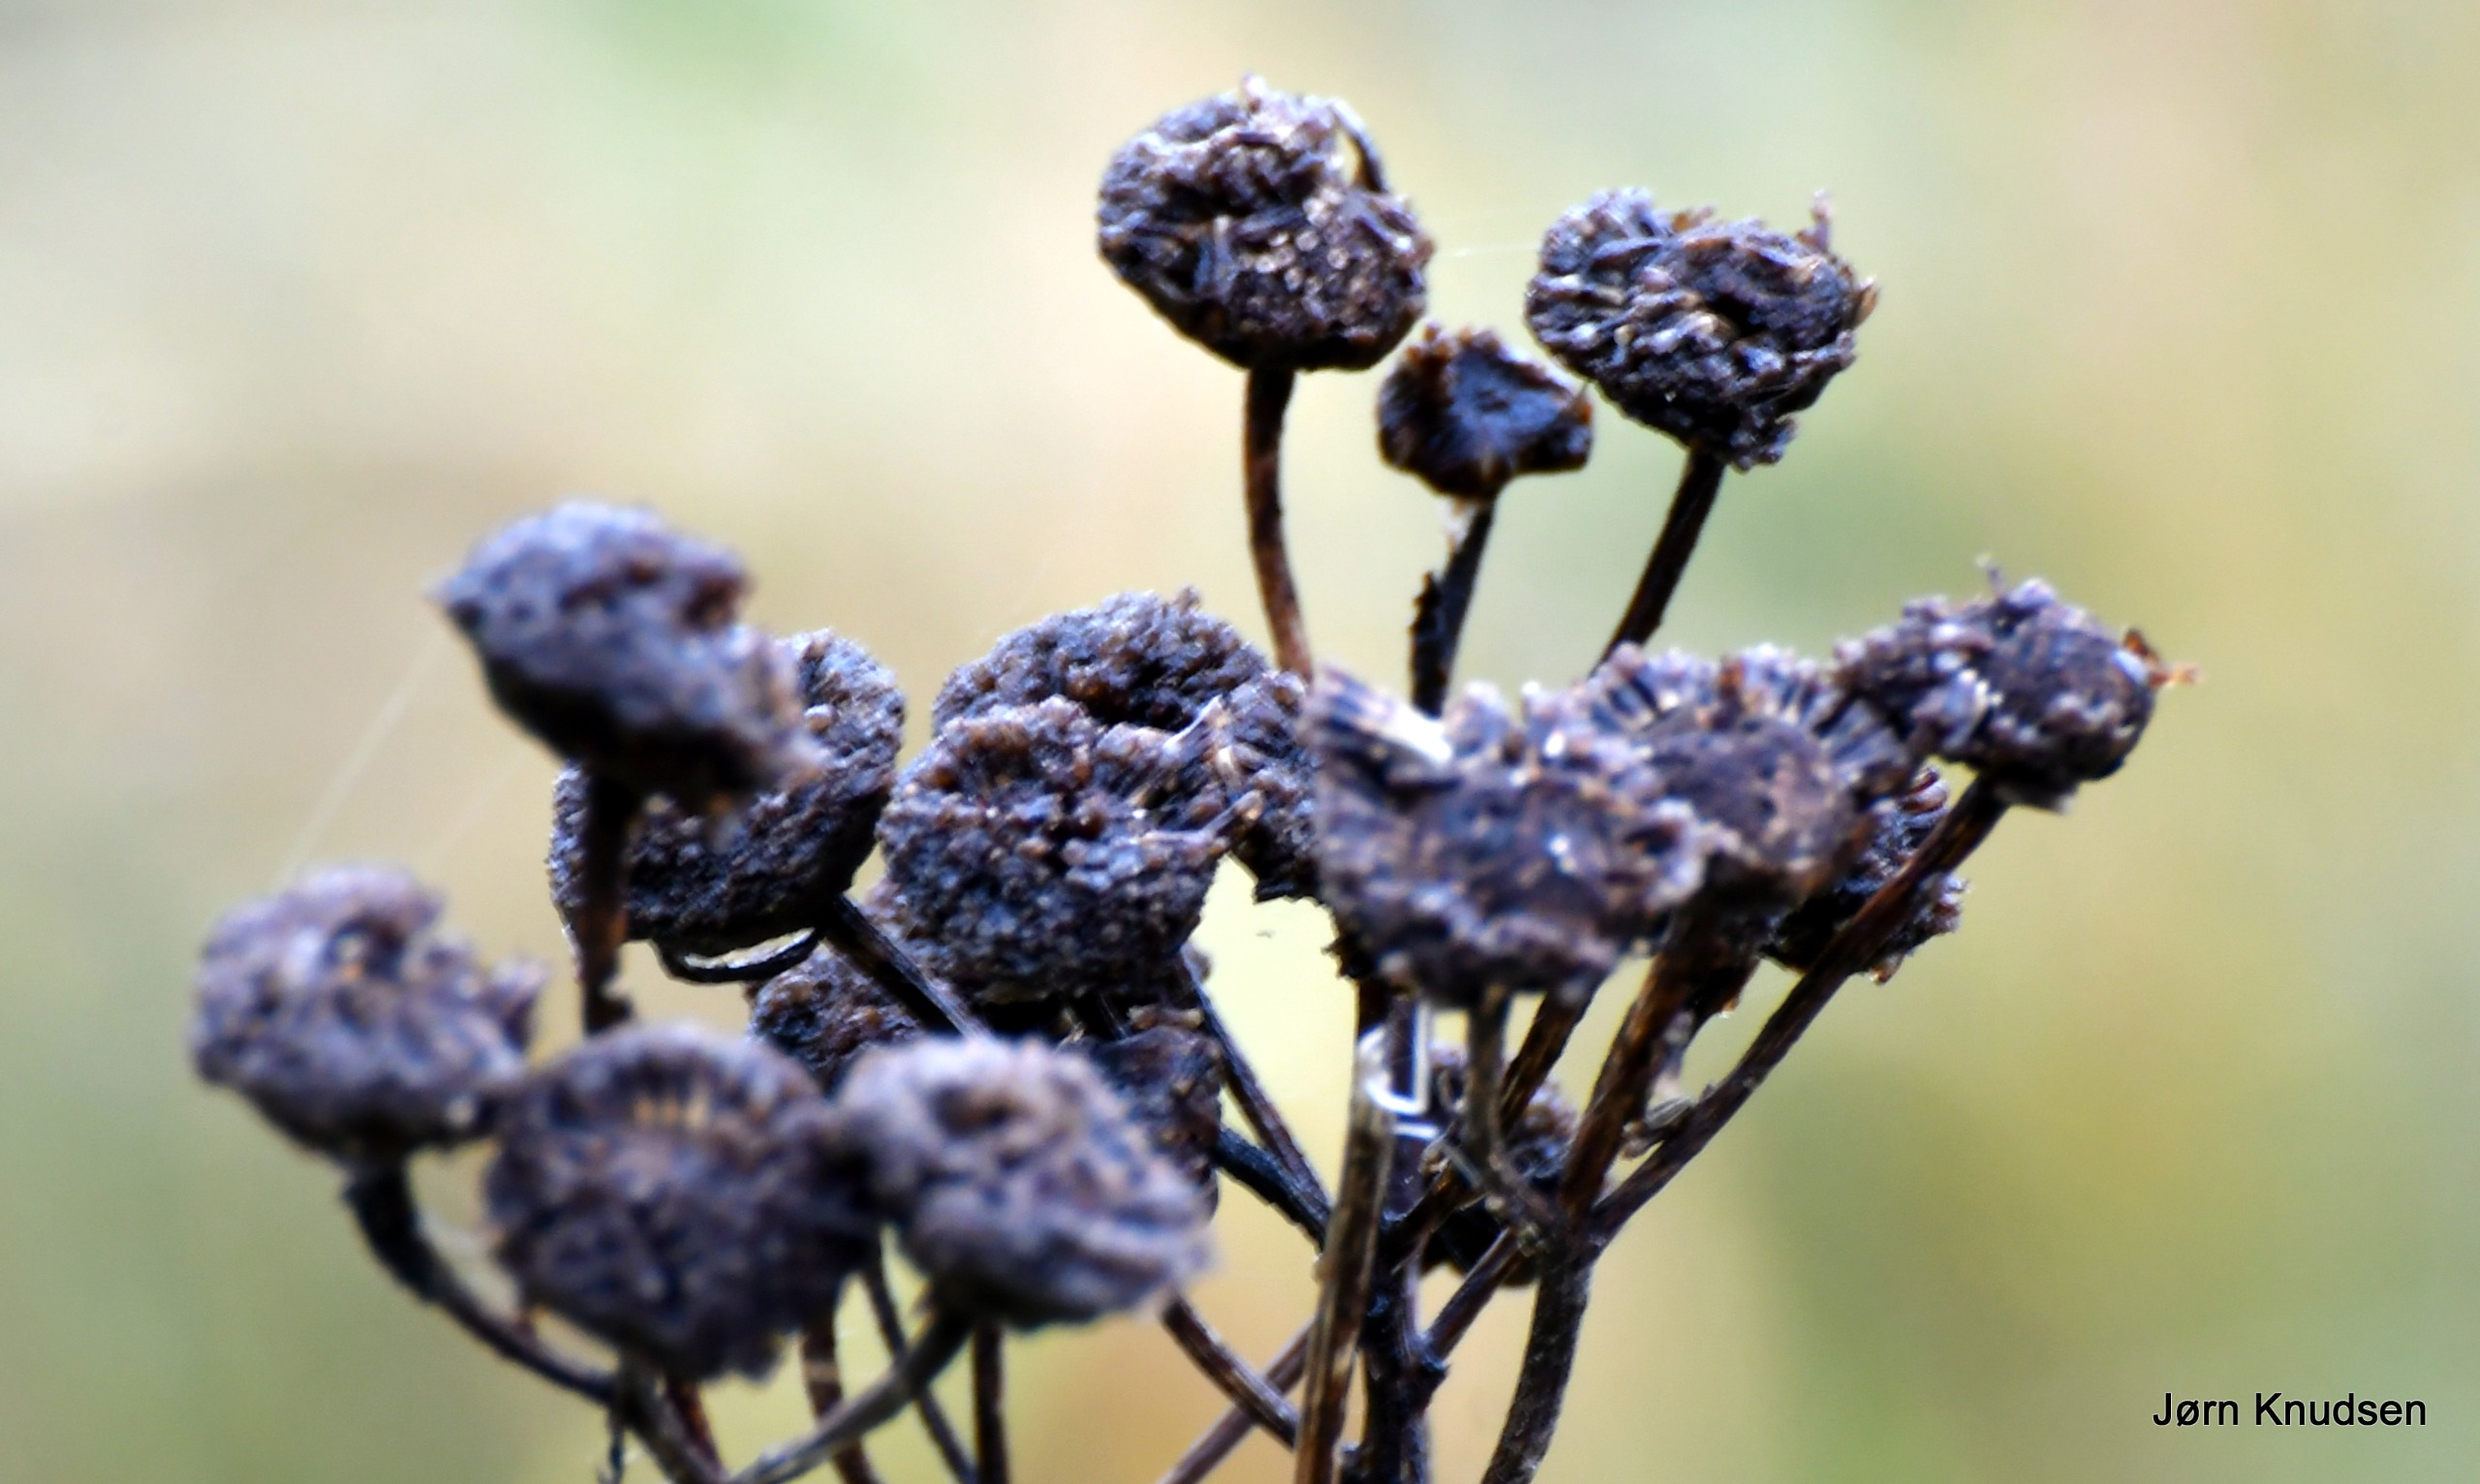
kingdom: Plantae
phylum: Tracheophyta
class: Magnoliopsida
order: Asterales
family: Asteraceae
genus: Achillea
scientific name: Achillea millefolium
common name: Almindelig røllike
